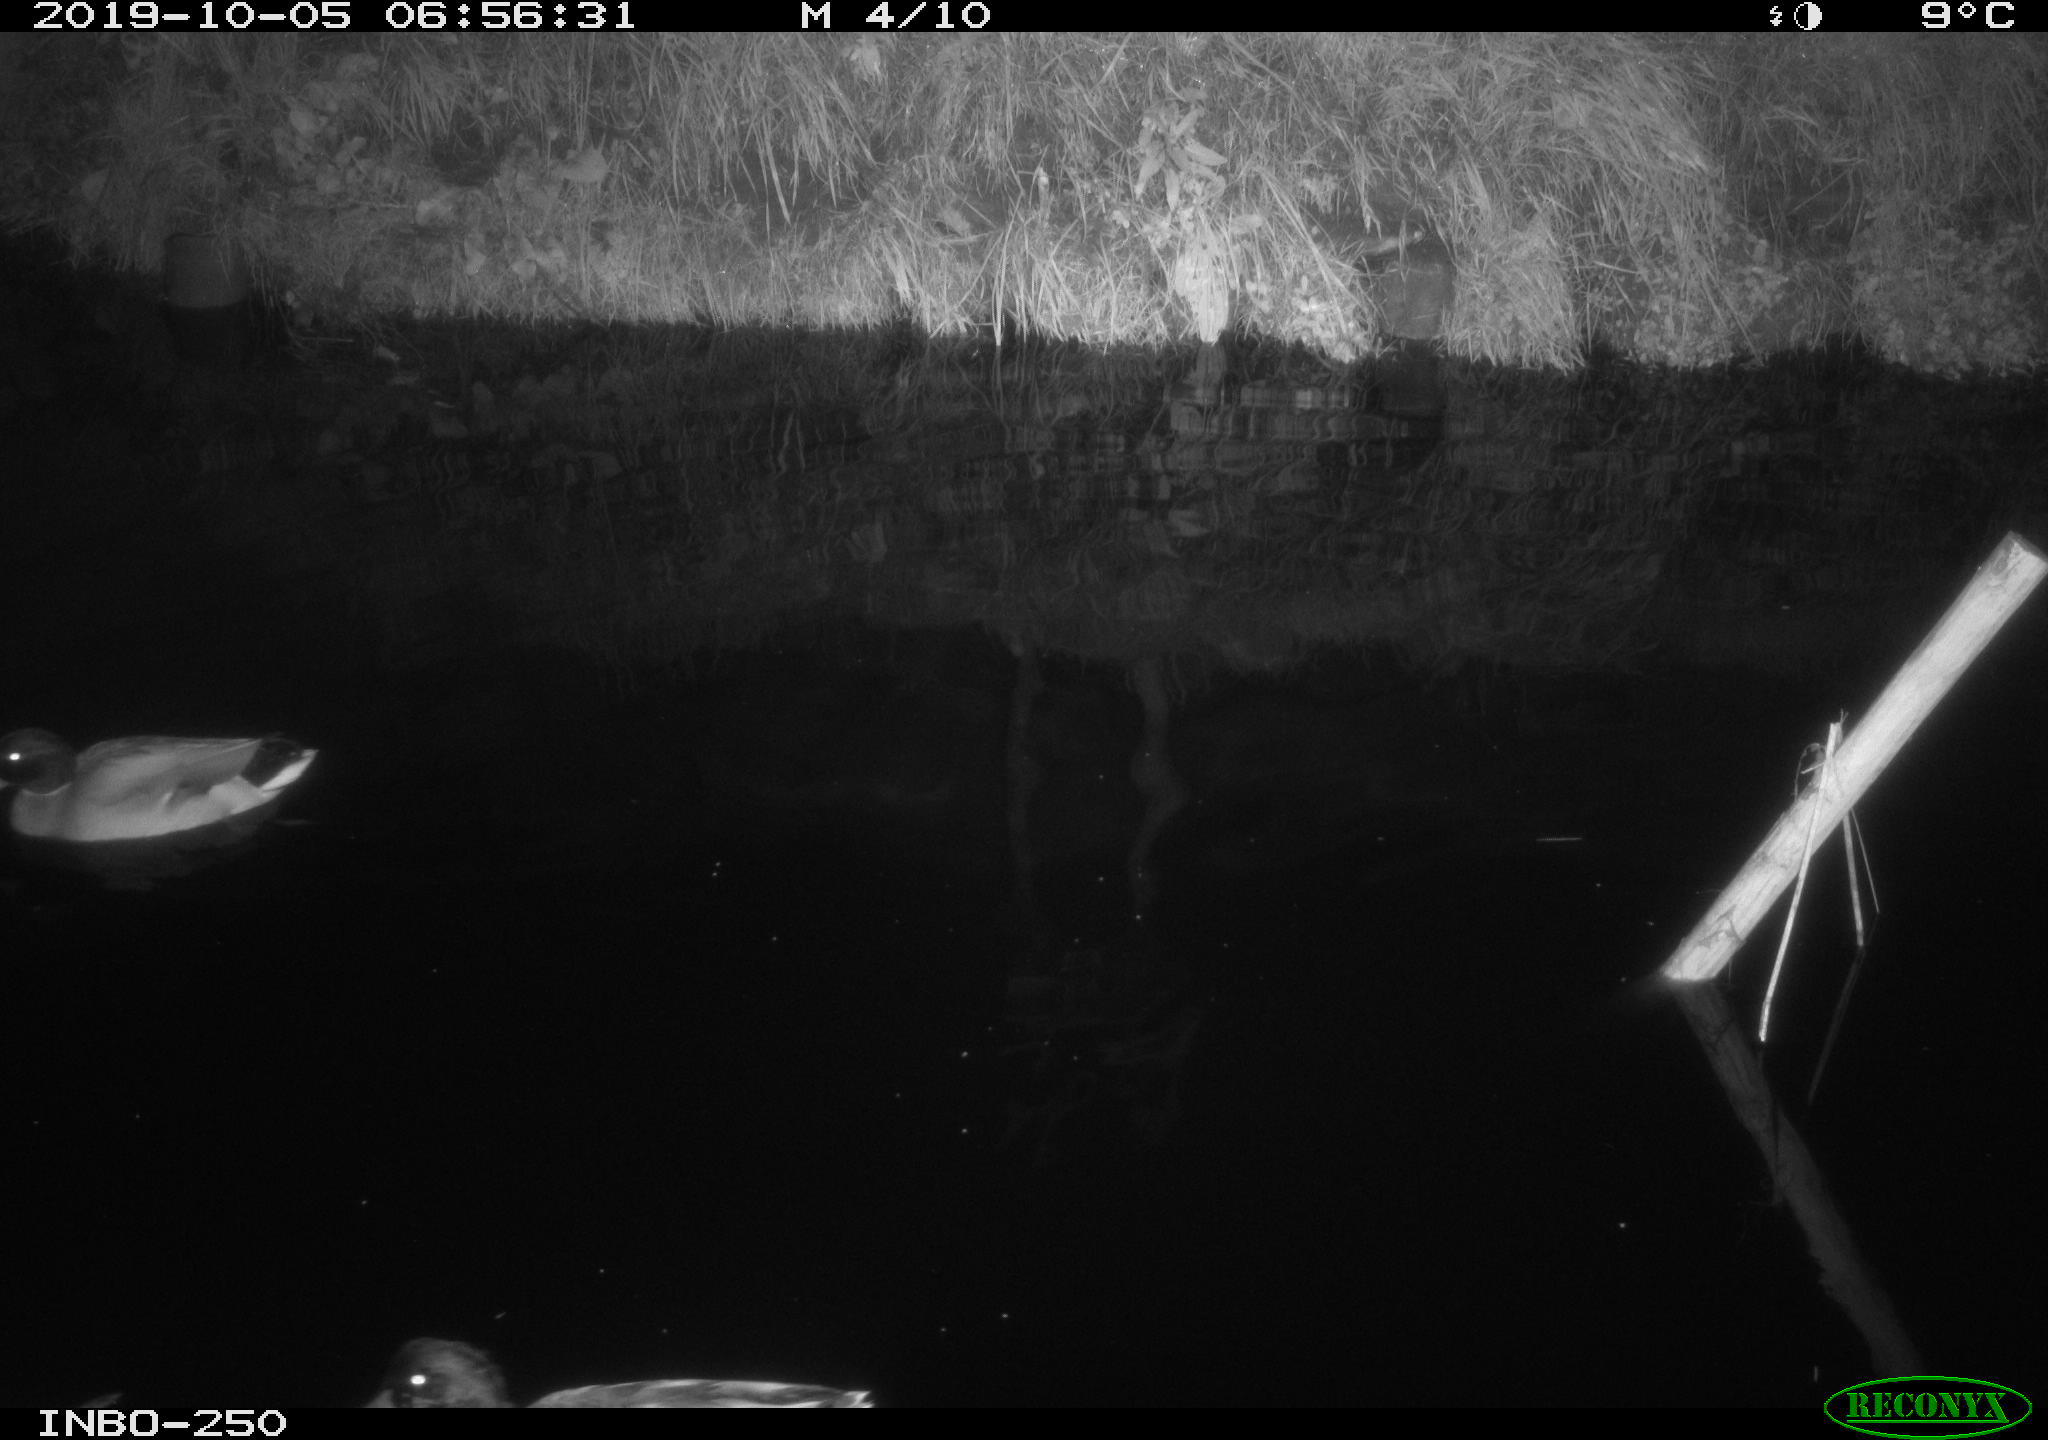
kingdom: Animalia
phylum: Chordata
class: Aves
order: Anseriformes
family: Anatidae
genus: Anas
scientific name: Anas platyrhynchos
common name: Mallard
